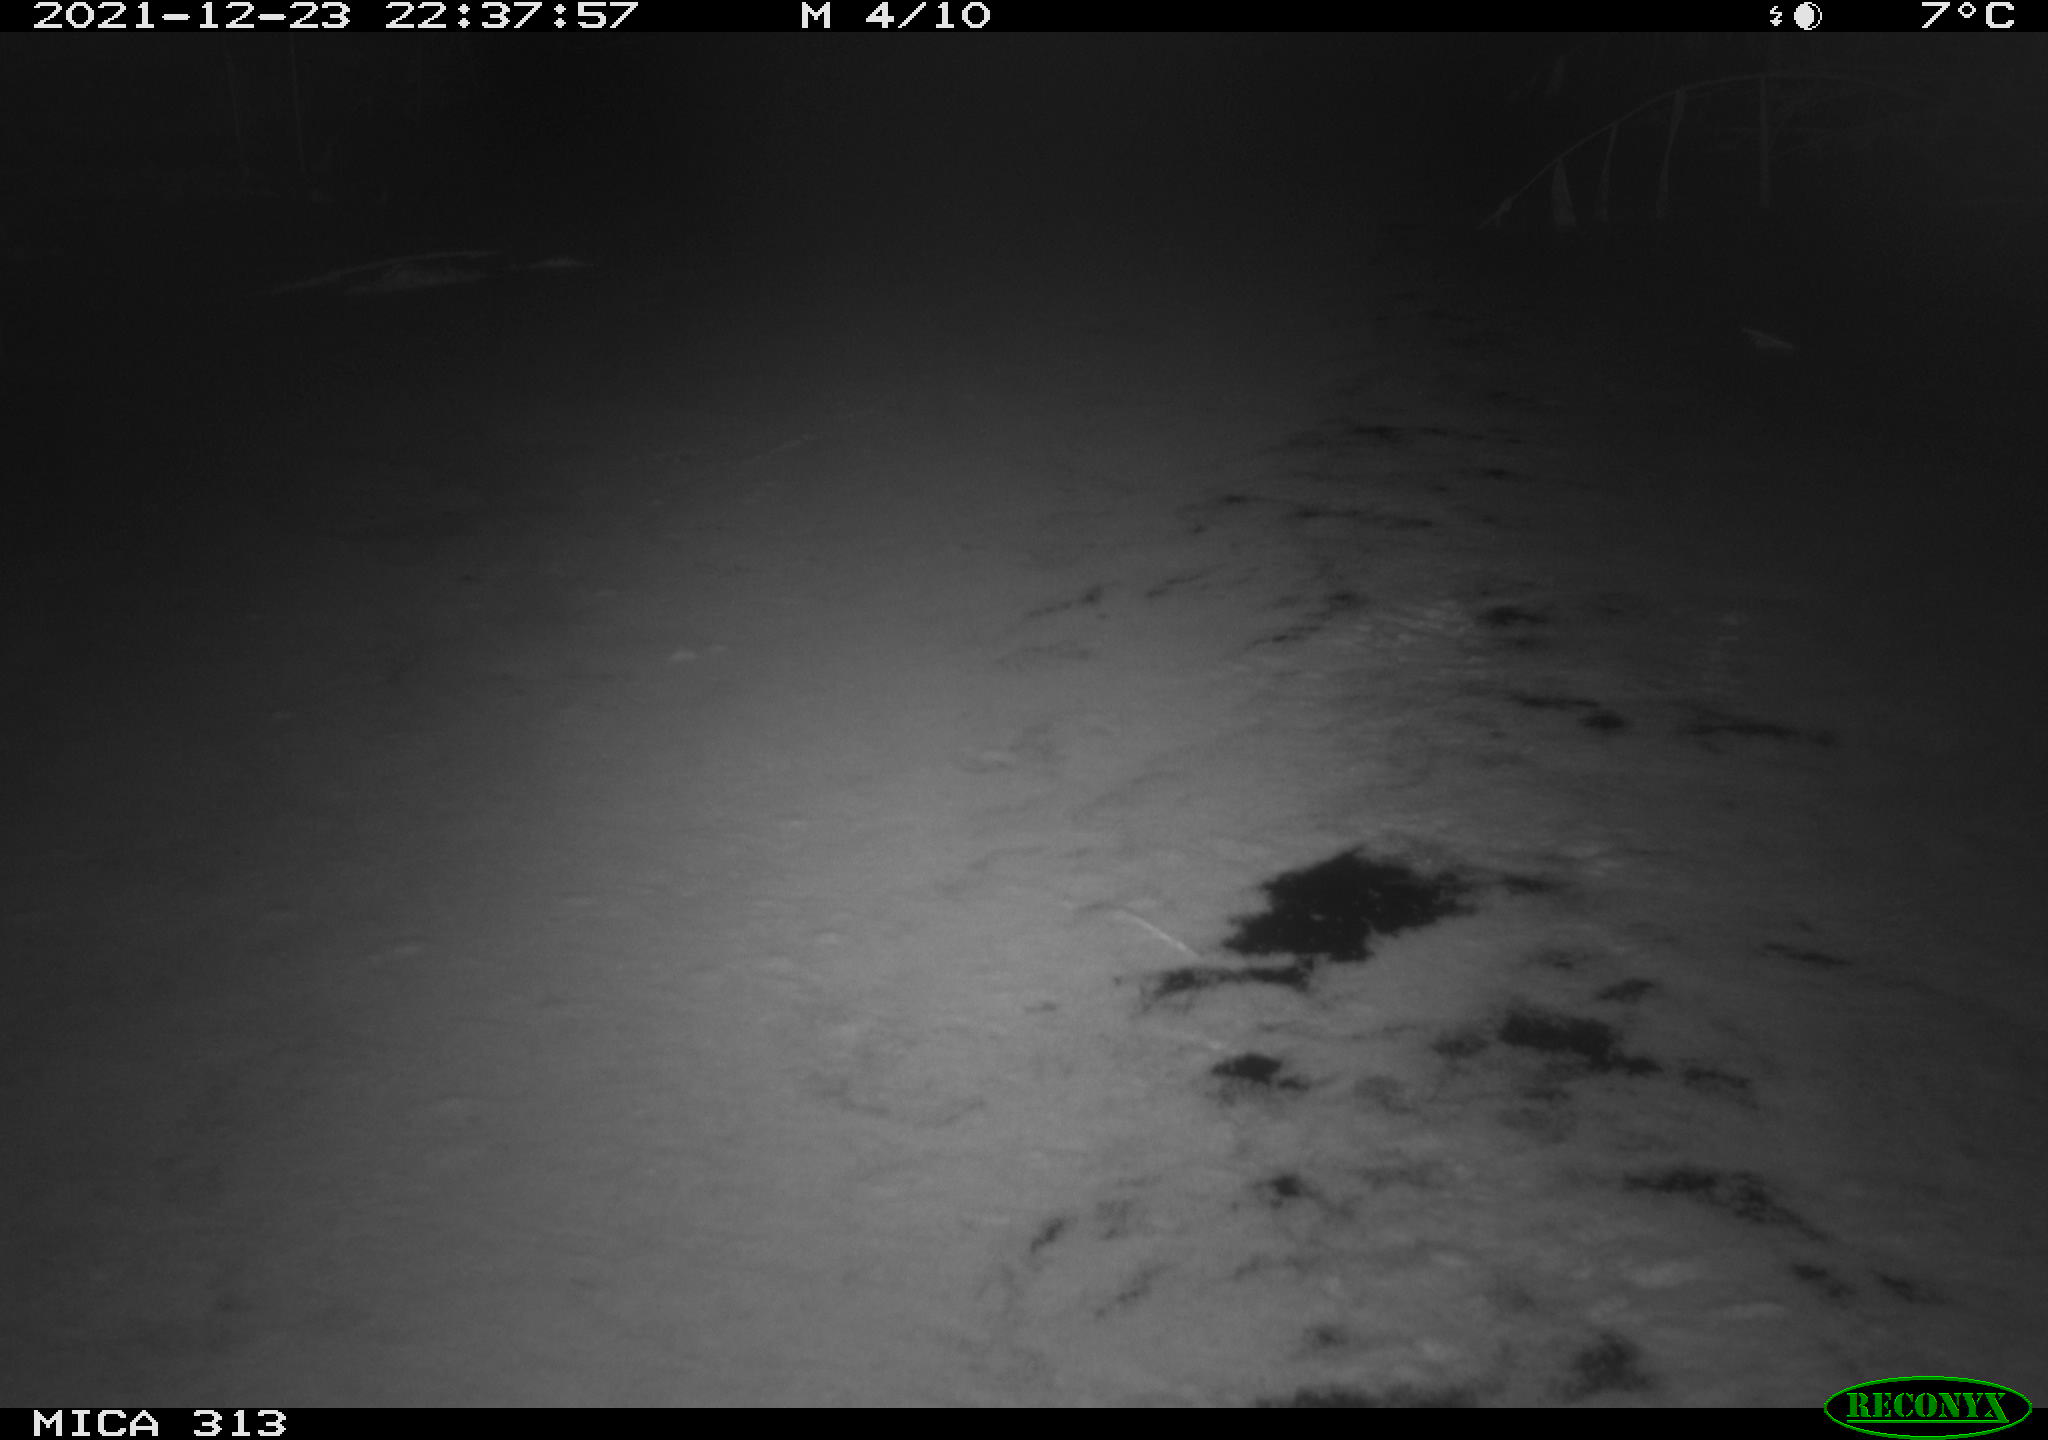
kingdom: Animalia
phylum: Chordata
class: Aves
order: Gruiformes
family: Rallidae
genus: Gallinula
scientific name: Gallinula chloropus
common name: Common moorhen
